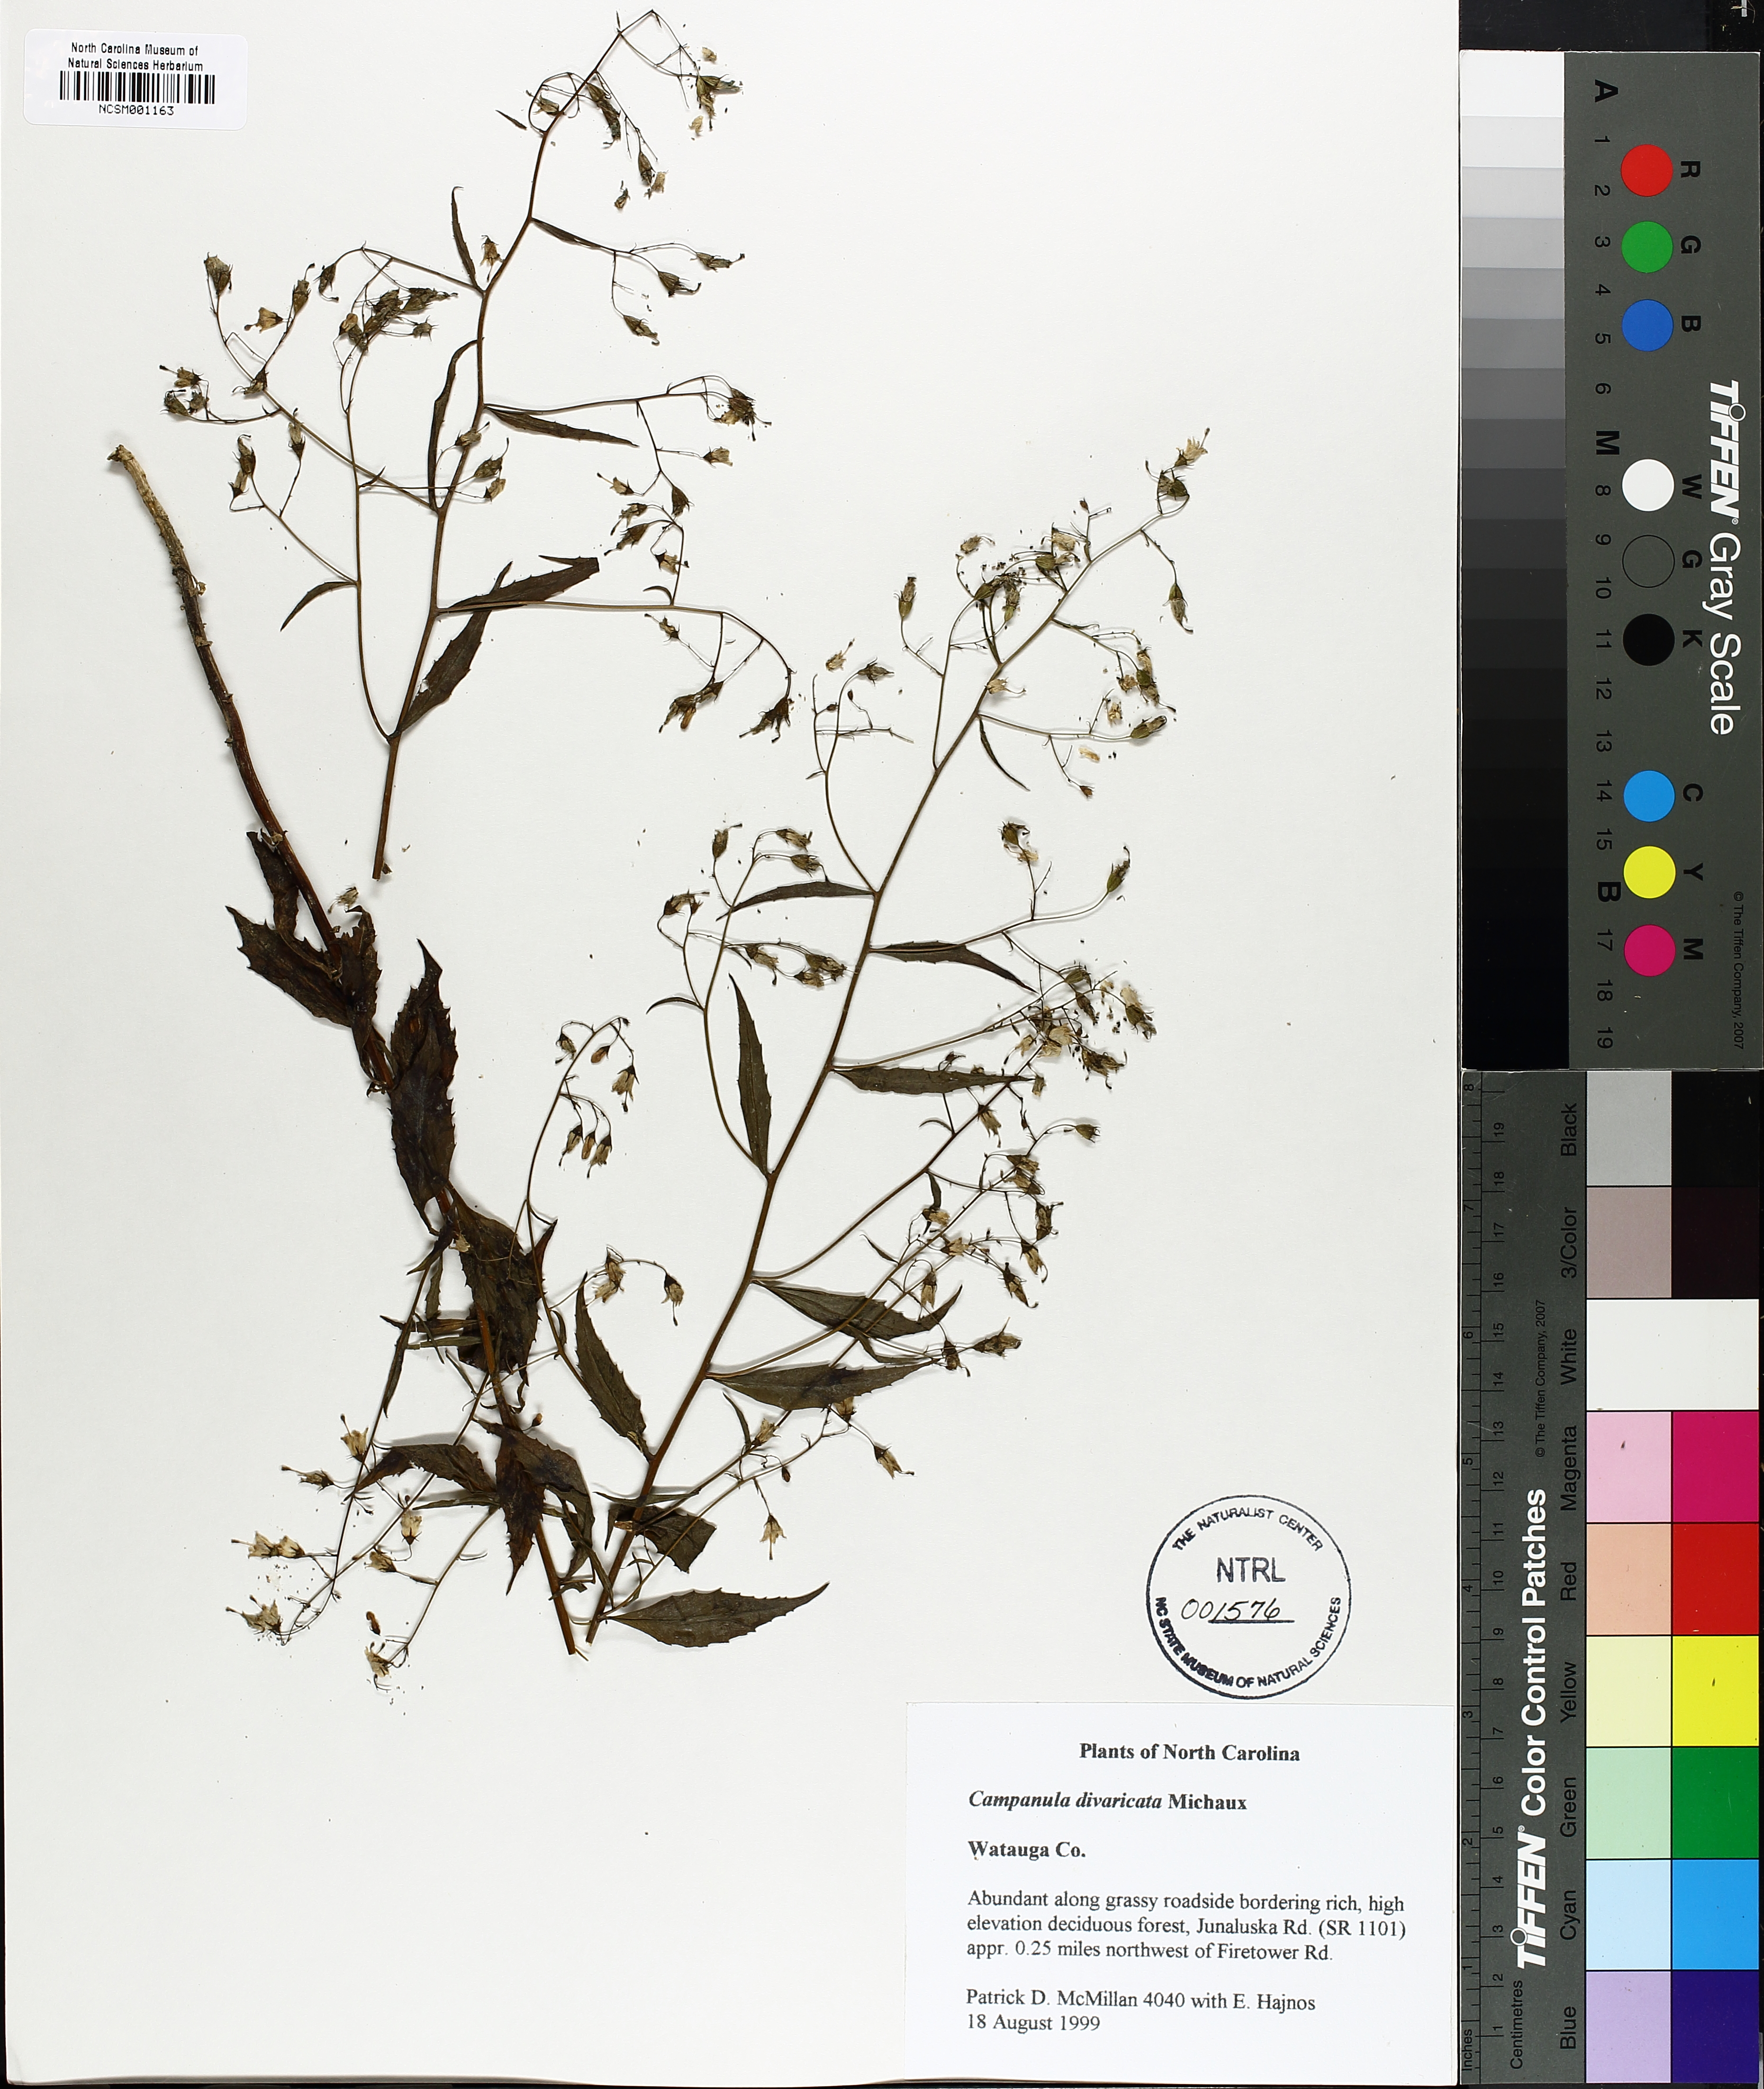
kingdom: Plantae
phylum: Tracheophyta
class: Magnoliopsida
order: Asterales
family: Campanulaceae
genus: Campanula
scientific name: Campanula divaricata
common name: Appalachian bellflower
